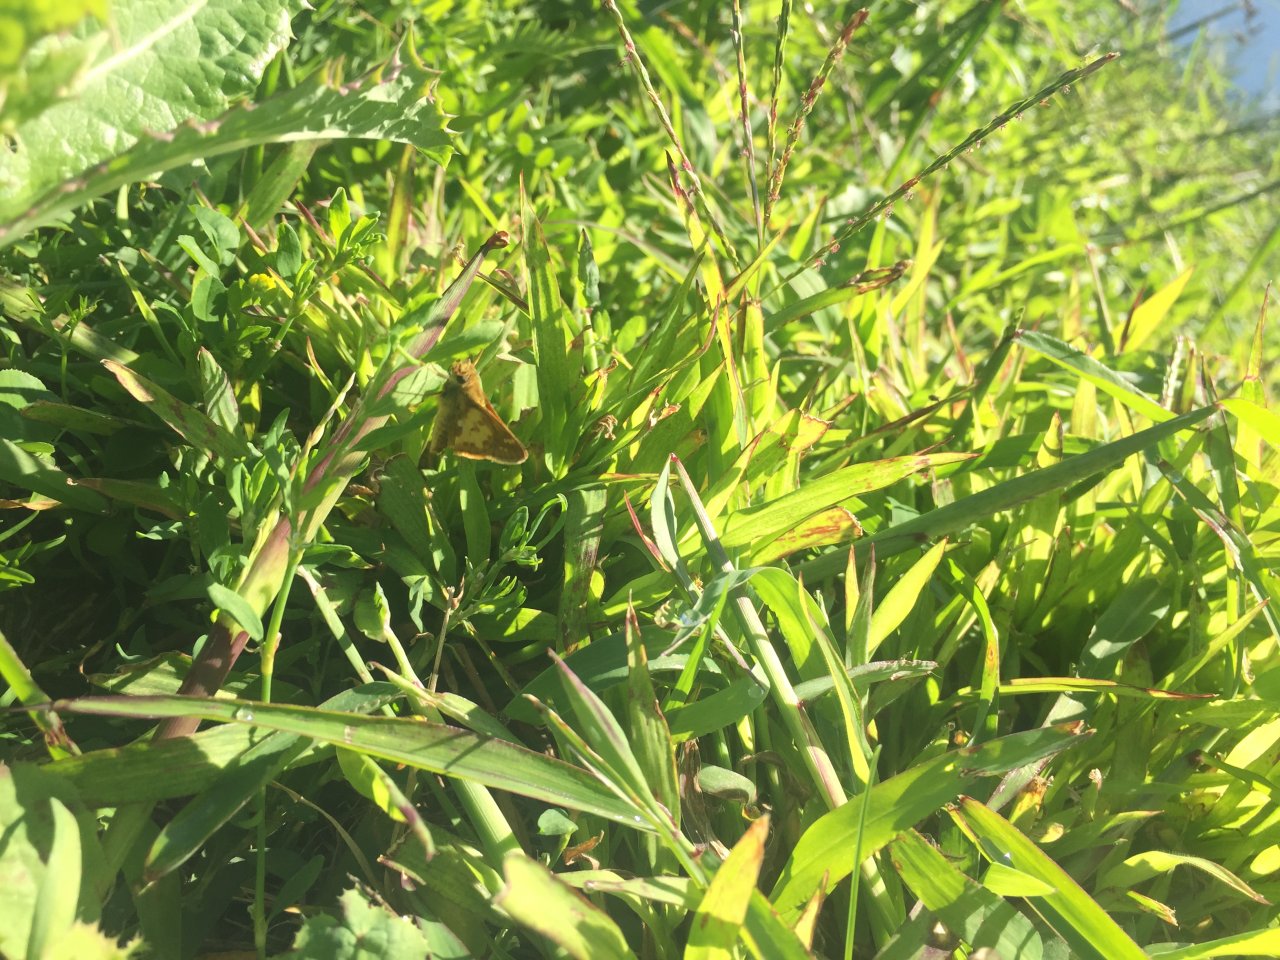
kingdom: Animalia
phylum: Arthropoda
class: Insecta
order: Lepidoptera
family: Hesperiidae
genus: Polites
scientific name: Polites coras
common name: Peck's Skipper
